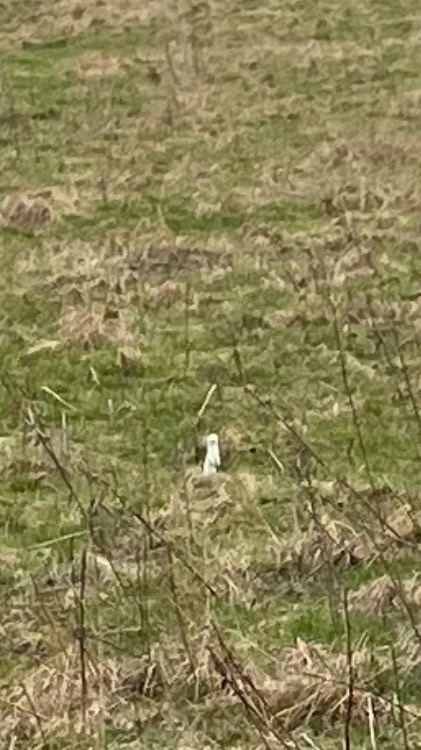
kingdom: Animalia
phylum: Chordata
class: Mammalia
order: Carnivora
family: Mustelidae
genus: Mustela
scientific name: Mustela erminea
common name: Lækat
